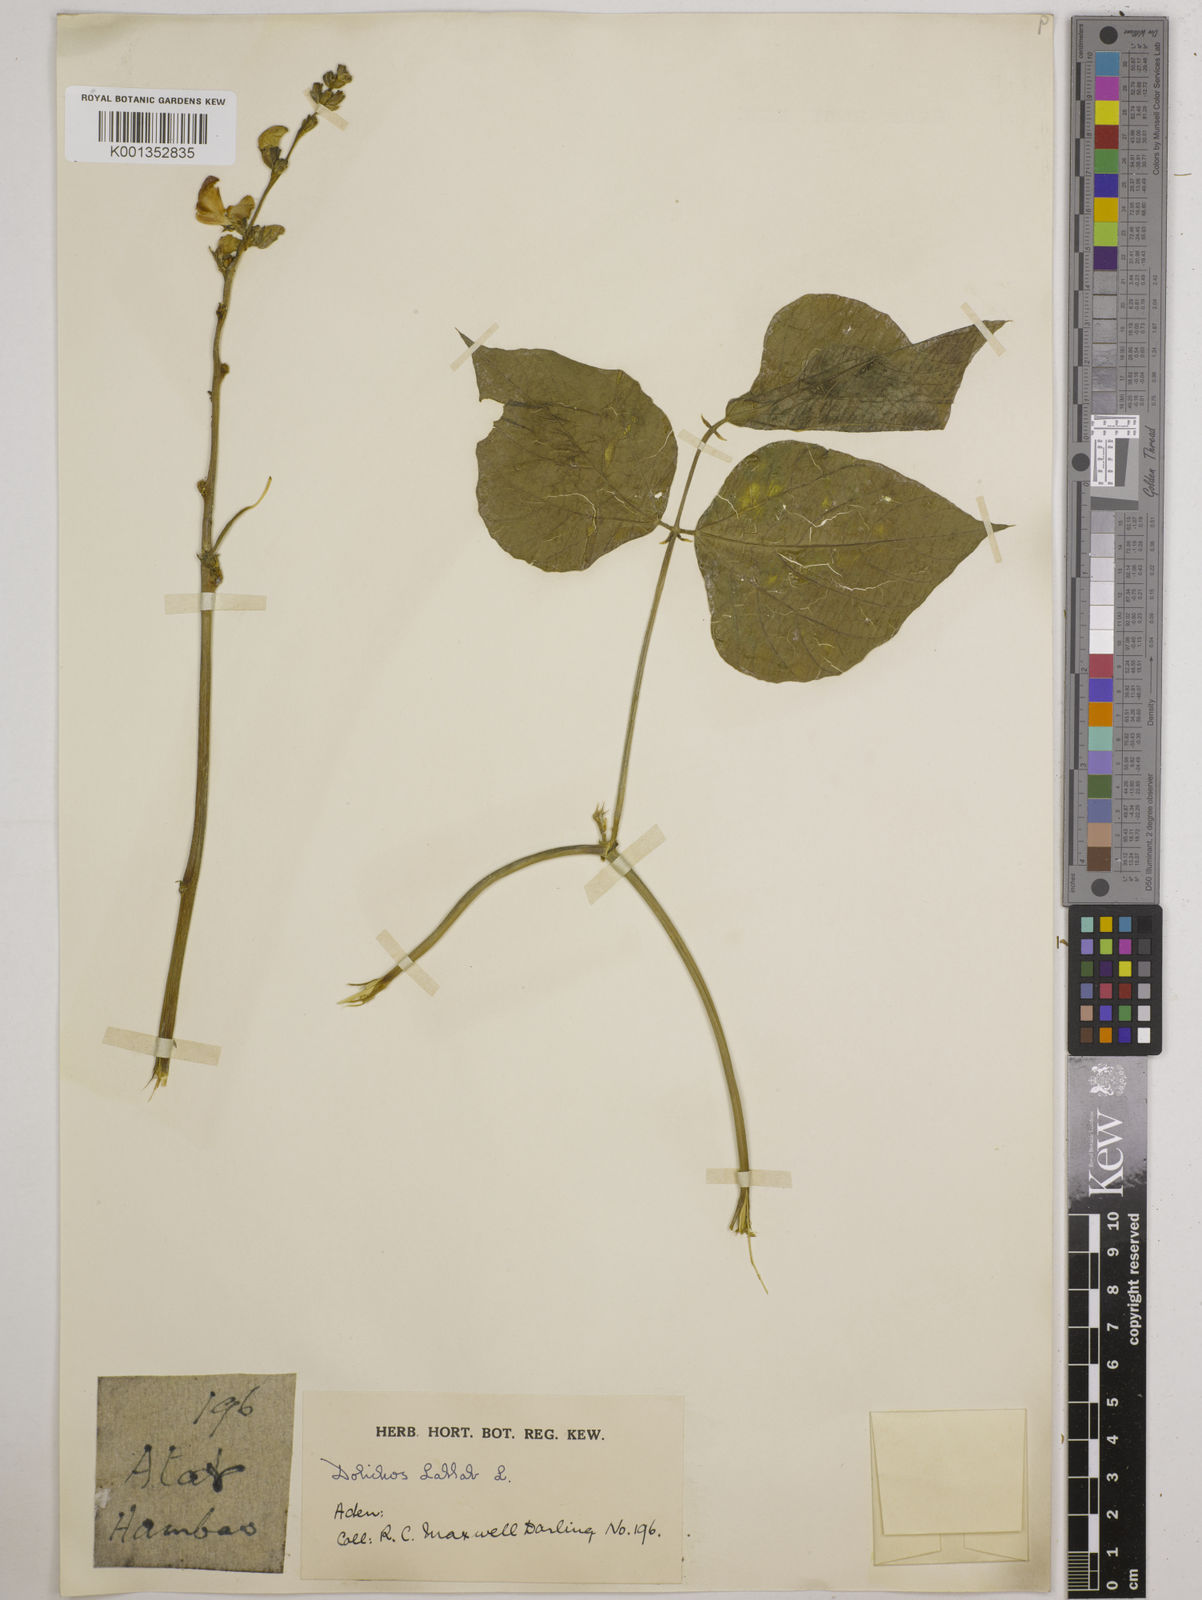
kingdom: Plantae
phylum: Tracheophyta
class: Magnoliopsida
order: Fabales
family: Fabaceae
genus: Lablab
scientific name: Lablab purpureus
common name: Lablab-bean
